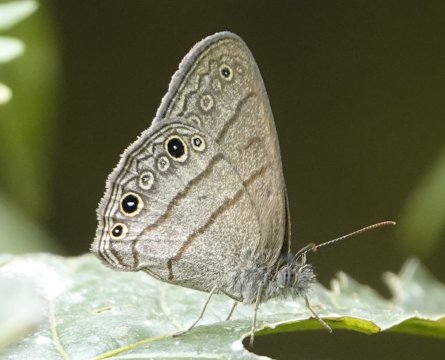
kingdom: Animalia
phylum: Arthropoda
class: Insecta
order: Lepidoptera
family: Nymphalidae
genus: Hermeuptychia
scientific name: Hermeuptychia hermes
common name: Hermes Satyr
